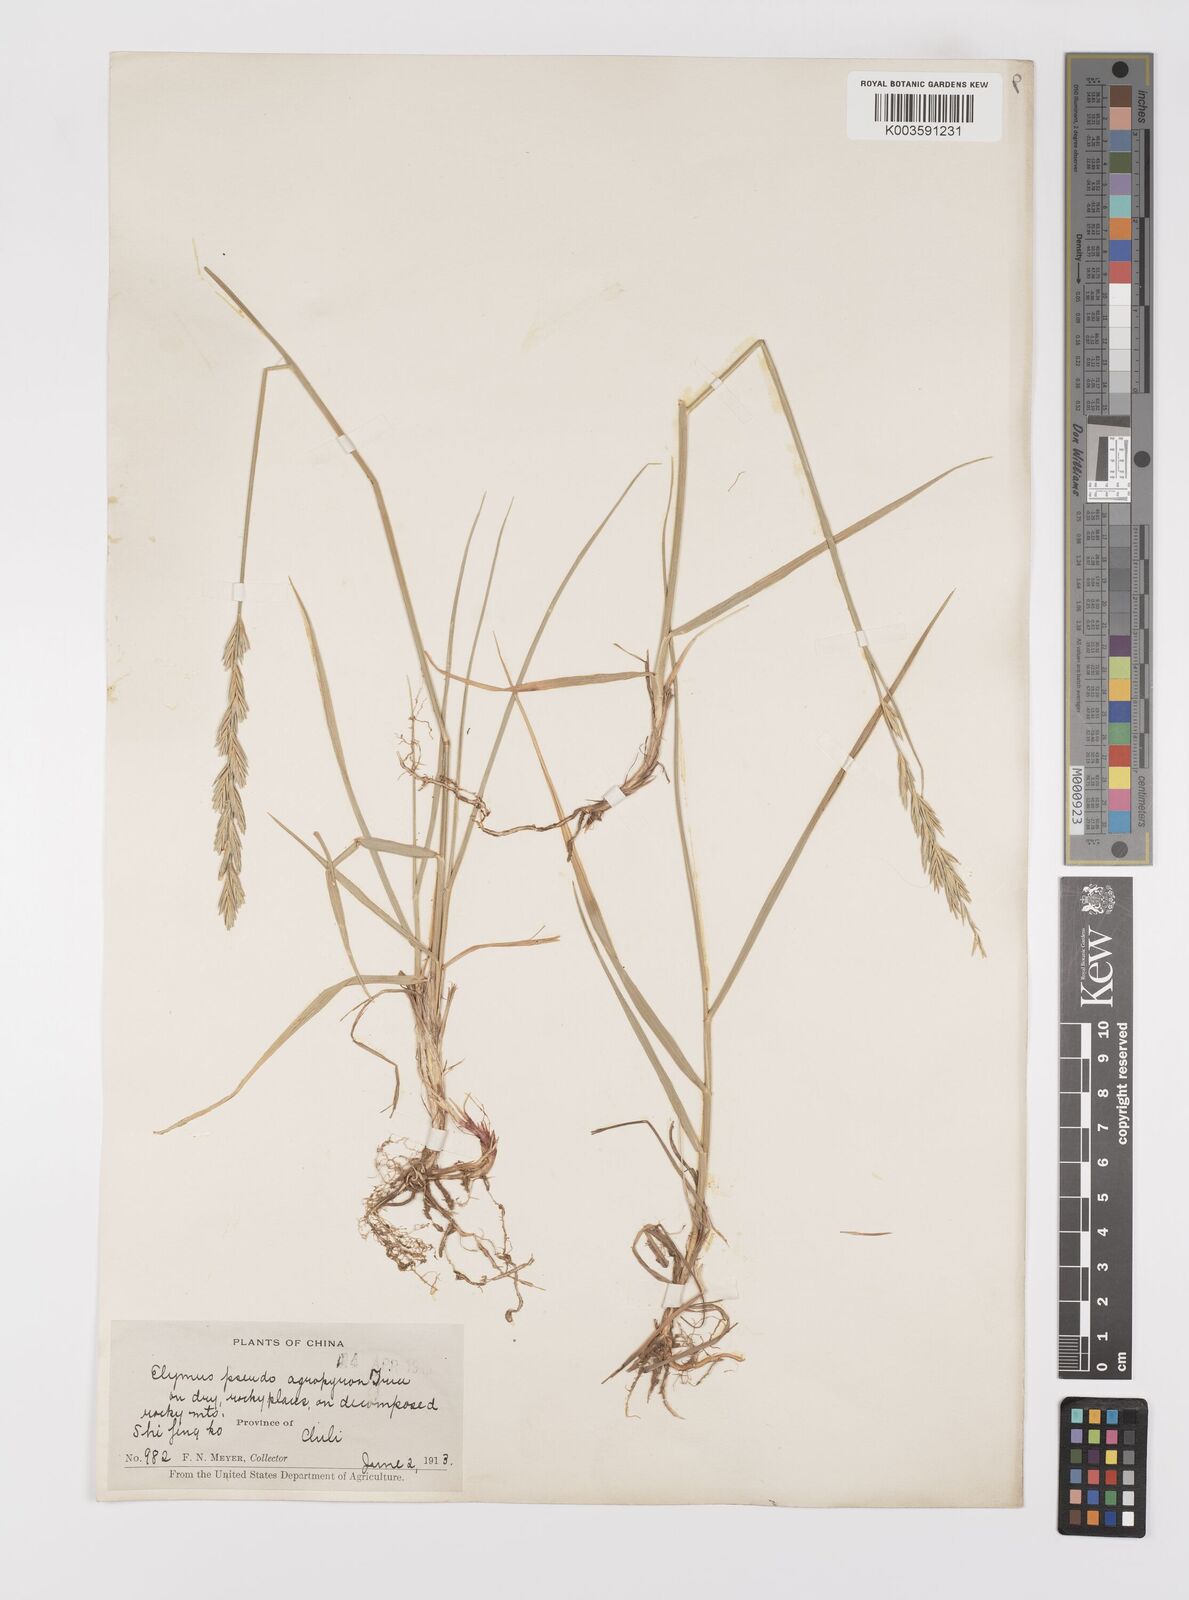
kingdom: Plantae
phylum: Tracheophyta
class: Liliopsida
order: Poales
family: Poaceae
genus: Leymus
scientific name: Leymus chinensis
